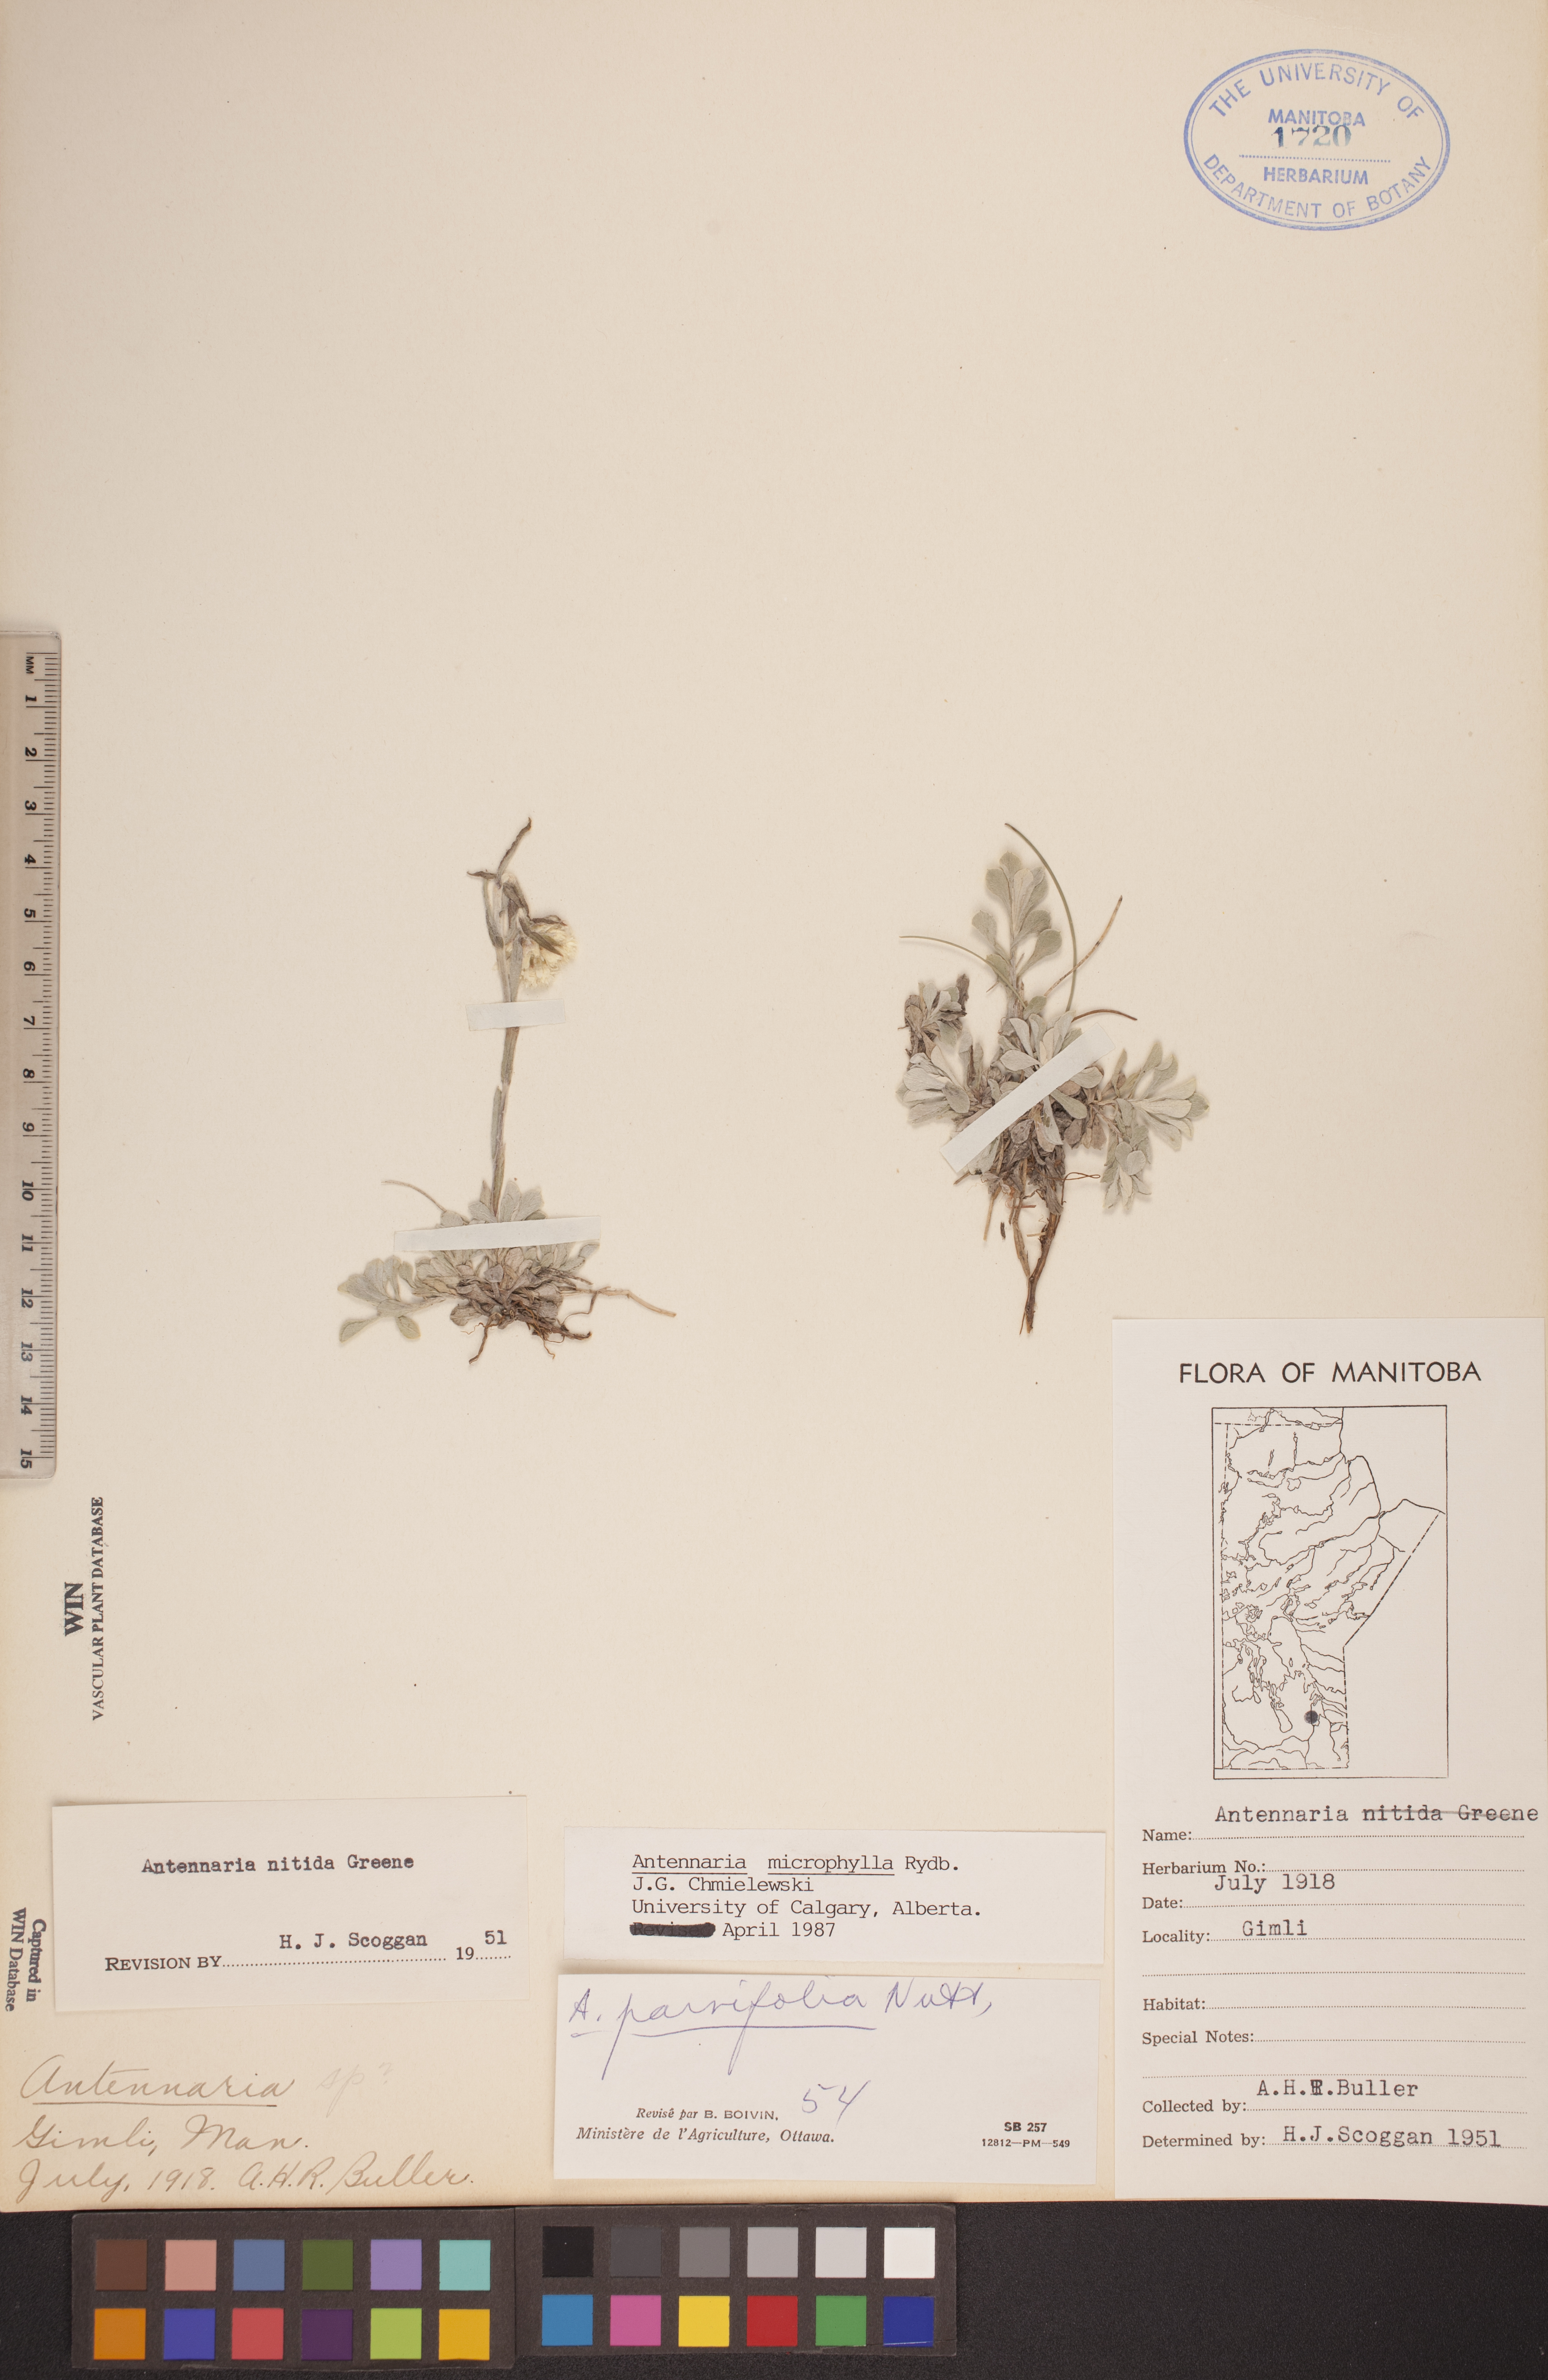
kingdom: Plantae
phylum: Tracheophyta
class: Magnoliopsida
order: Asterales
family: Asteraceae
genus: Antennaria
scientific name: Antennaria microphylla
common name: Littleleaf pussytoes
